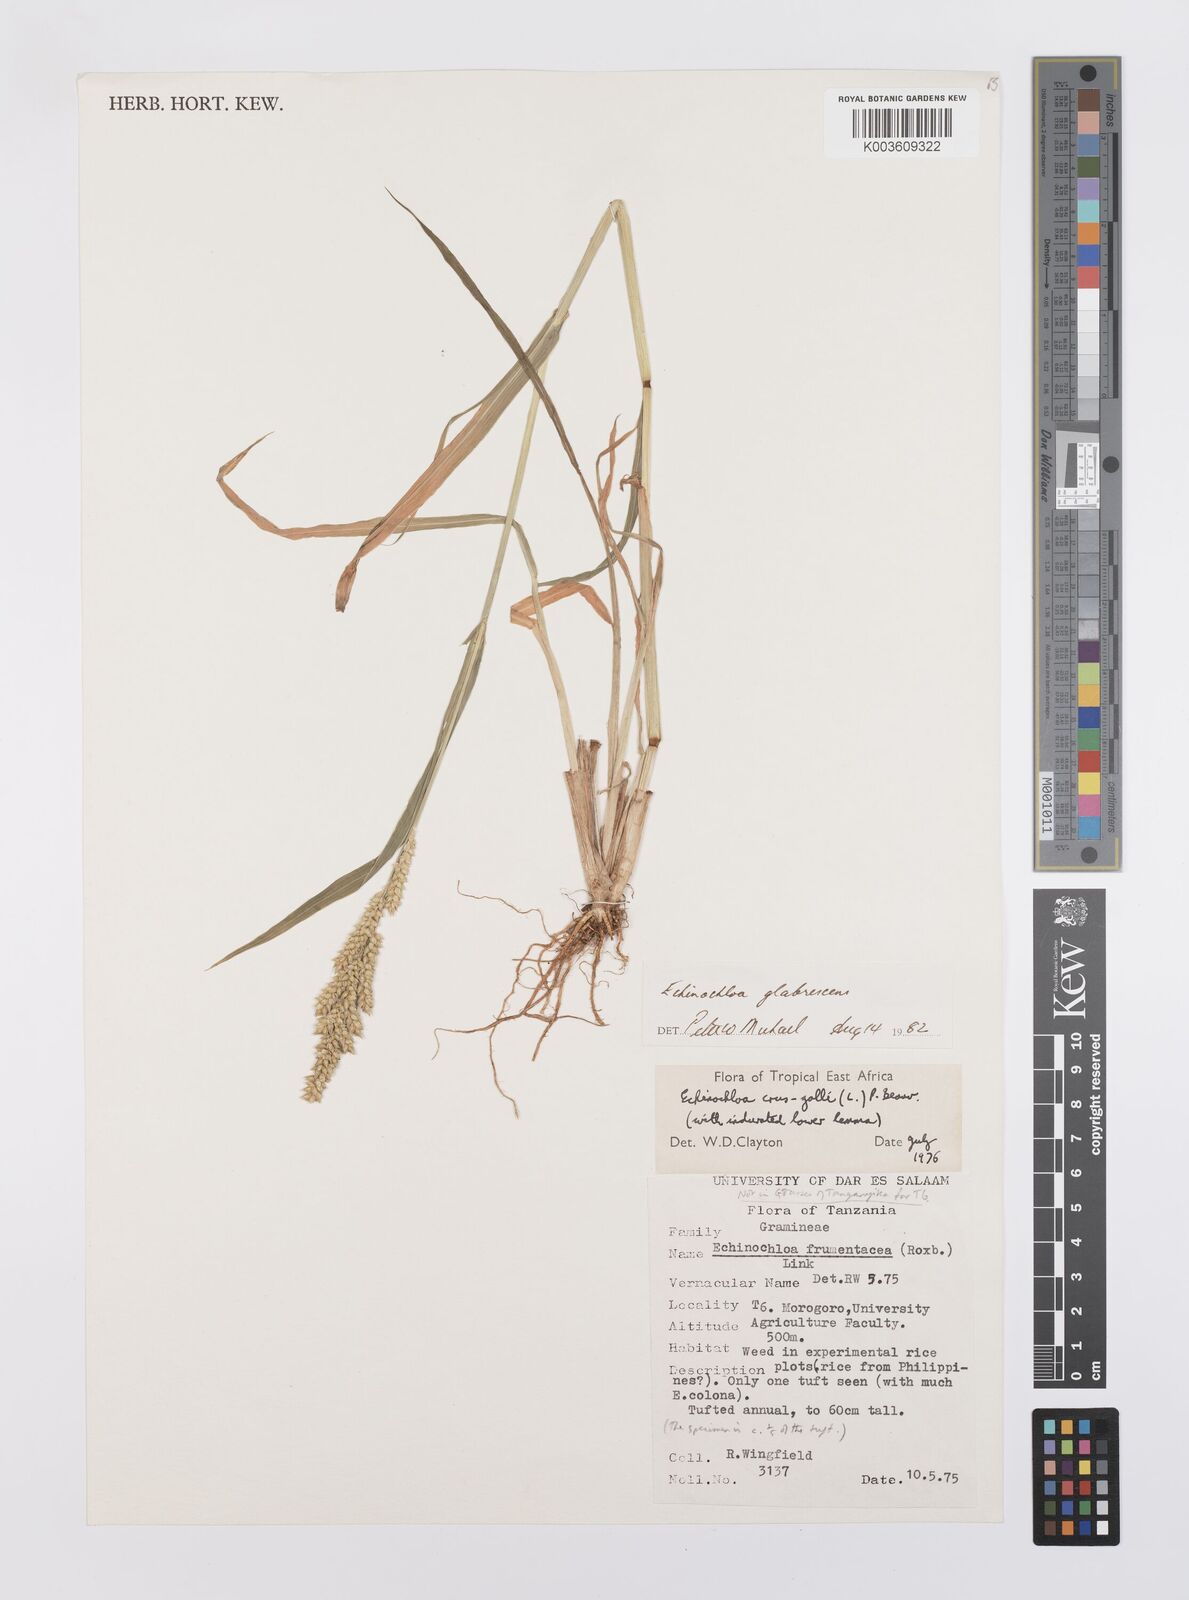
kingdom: Plantae
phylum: Tracheophyta
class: Liliopsida
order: Poales
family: Poaceae
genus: Echinochloa
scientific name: Echinochloa crus-galli
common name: Cockspur
